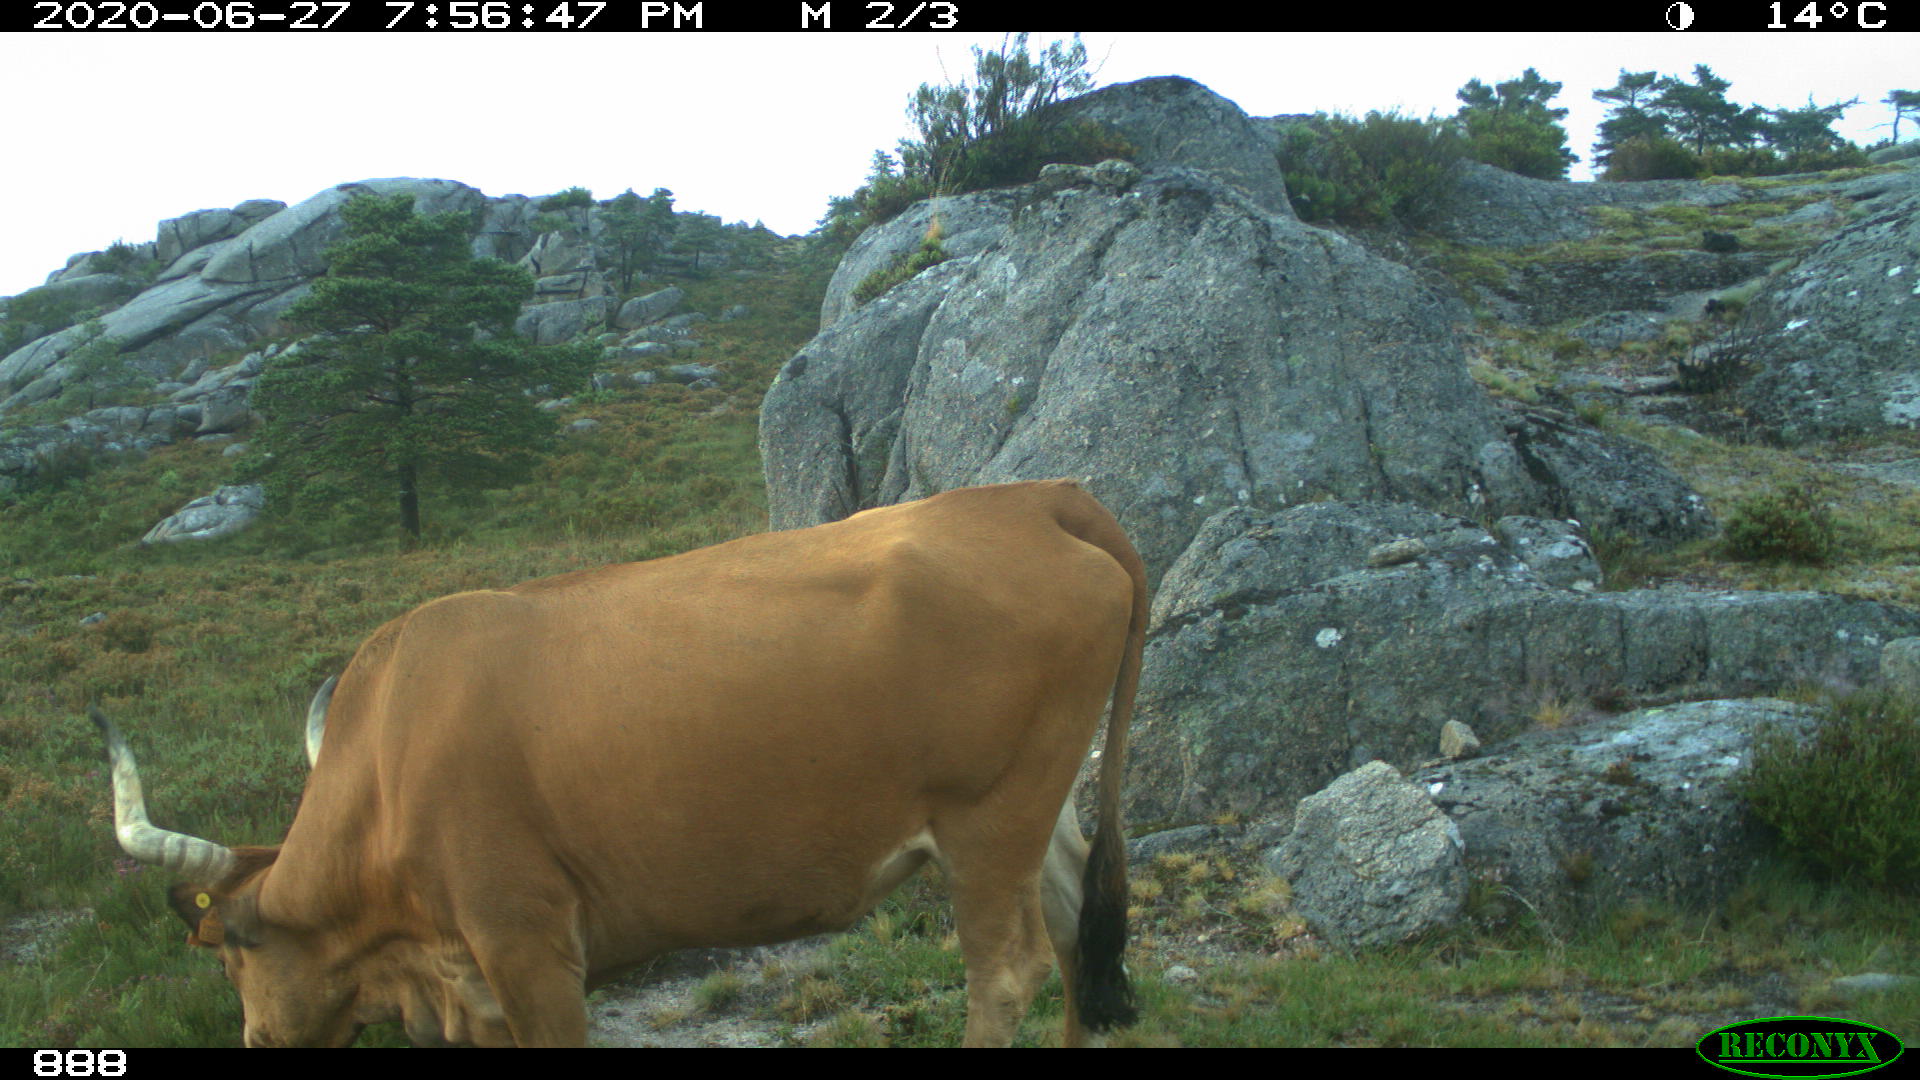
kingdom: Animalia
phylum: Chordata
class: Mammalia
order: Artiodactyla
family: Bovidae
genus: Bos
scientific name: Bos taurus
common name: Domesticated cattle
